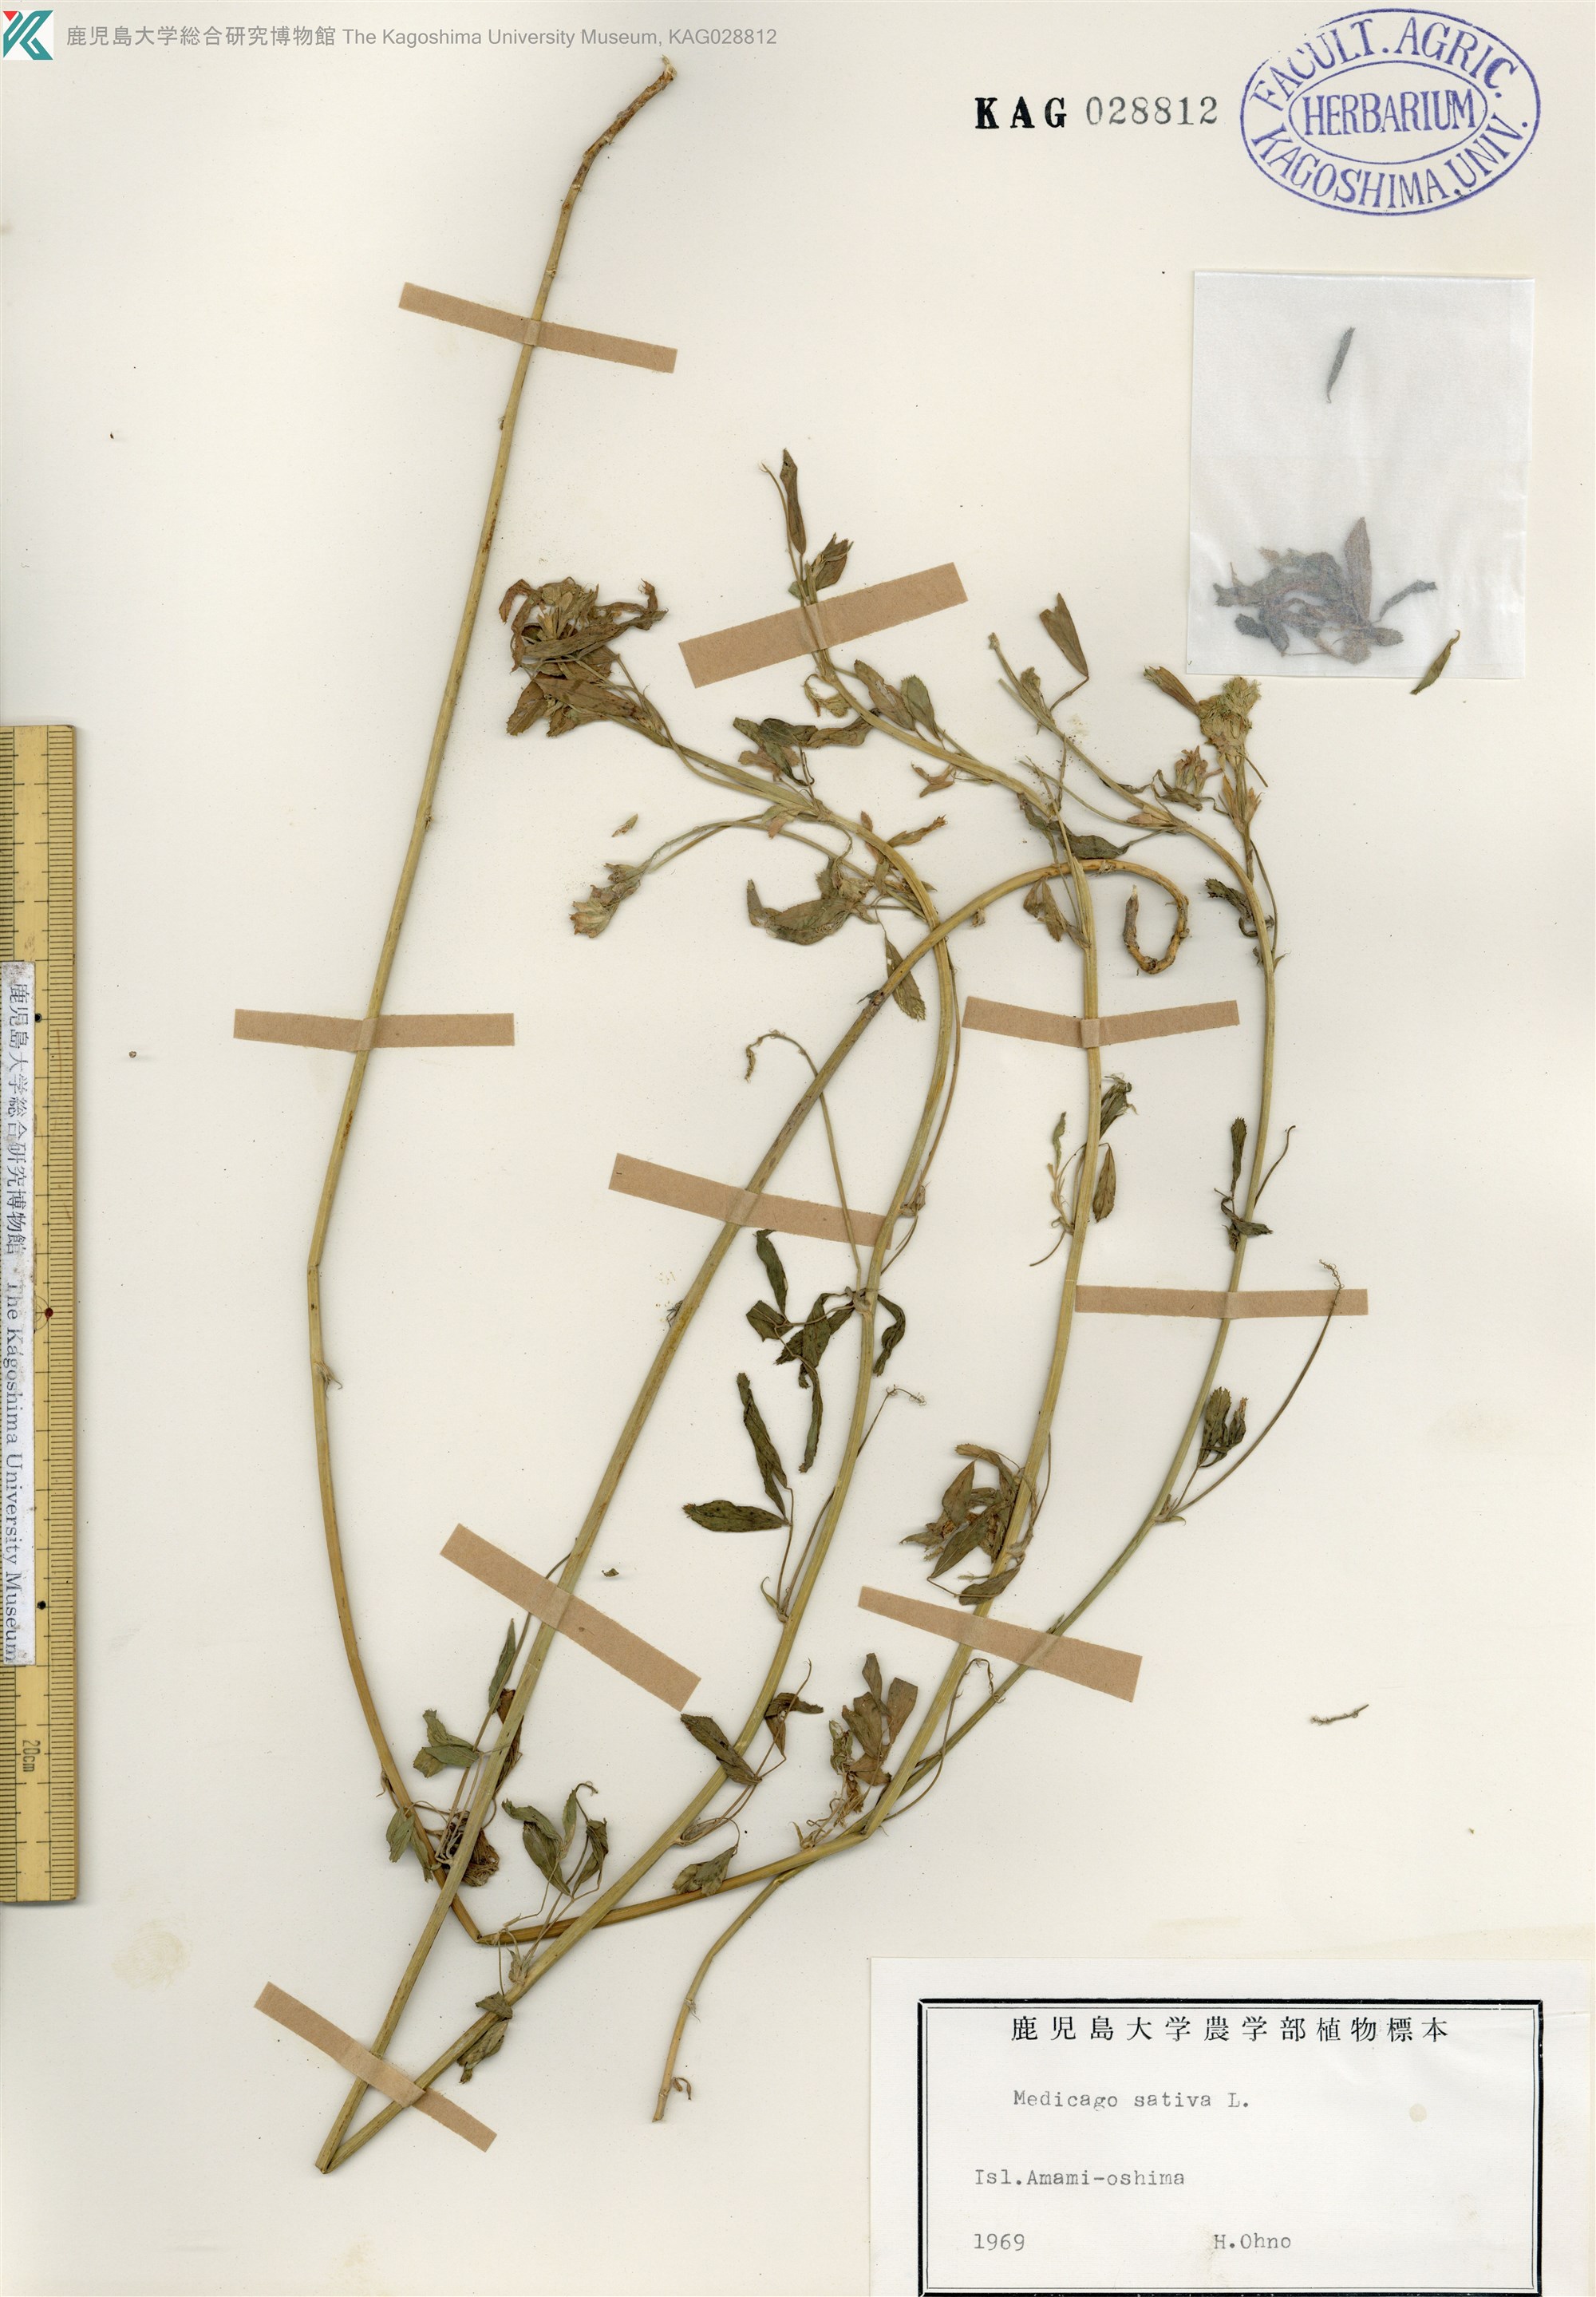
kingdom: Plantae
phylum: Tracheophyta
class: Magnoliopsida
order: Fabales
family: Fabaceae
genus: Medicago
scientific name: Medicago sativa
